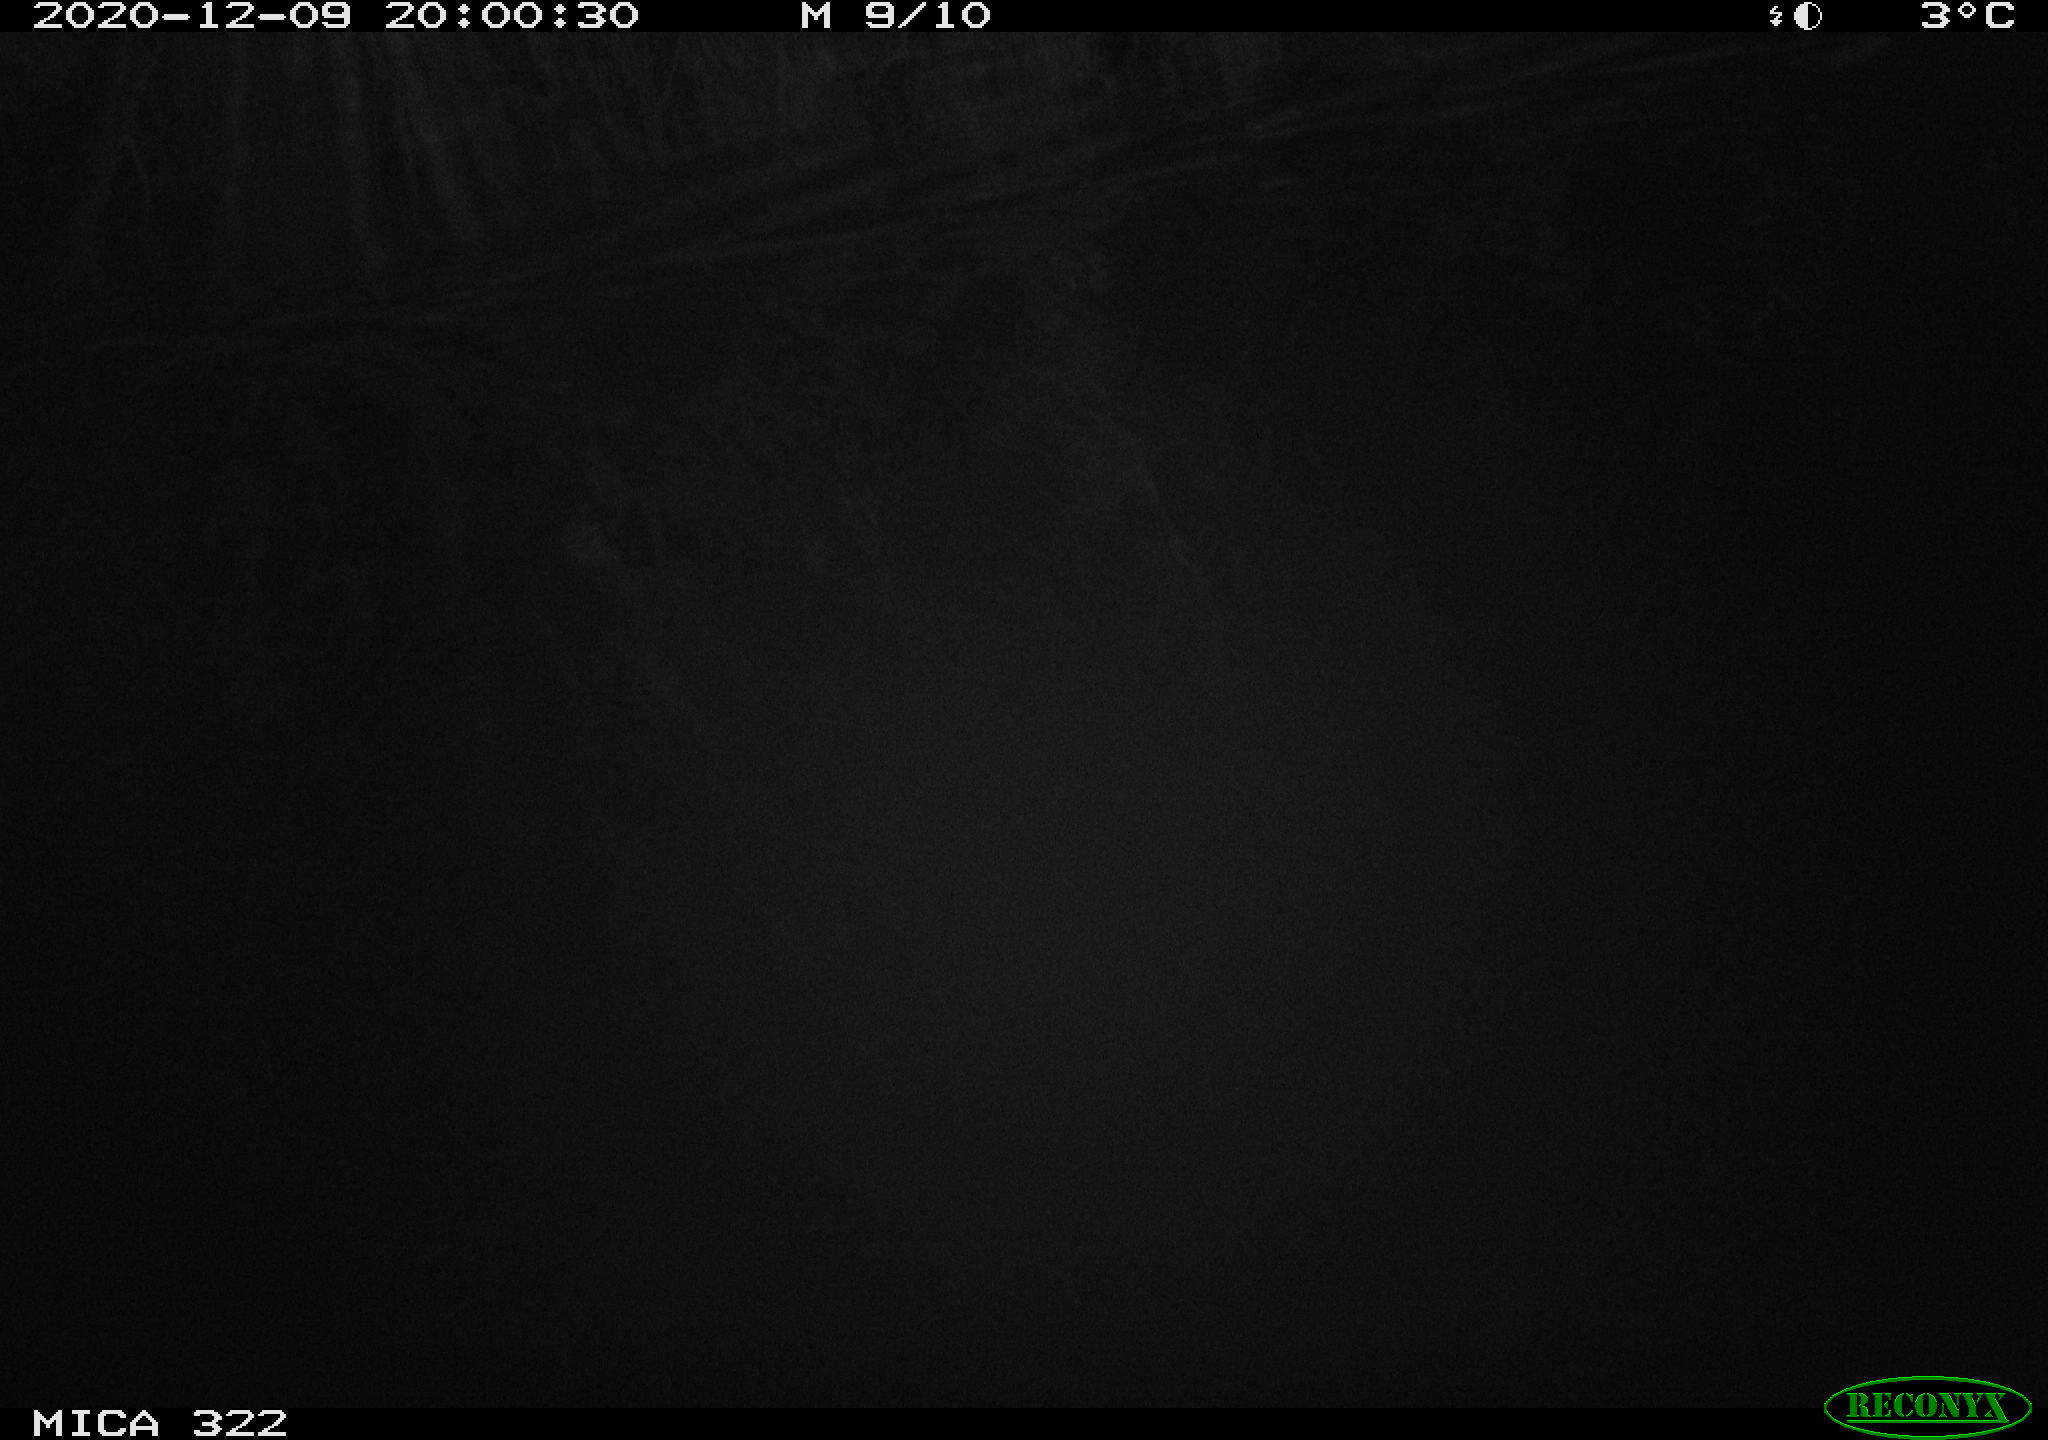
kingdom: Animalia
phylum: Chordata
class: Mammalia
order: Rodentia
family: Muridae
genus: Rattus
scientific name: Rattus norvegicus
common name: Brown rat
